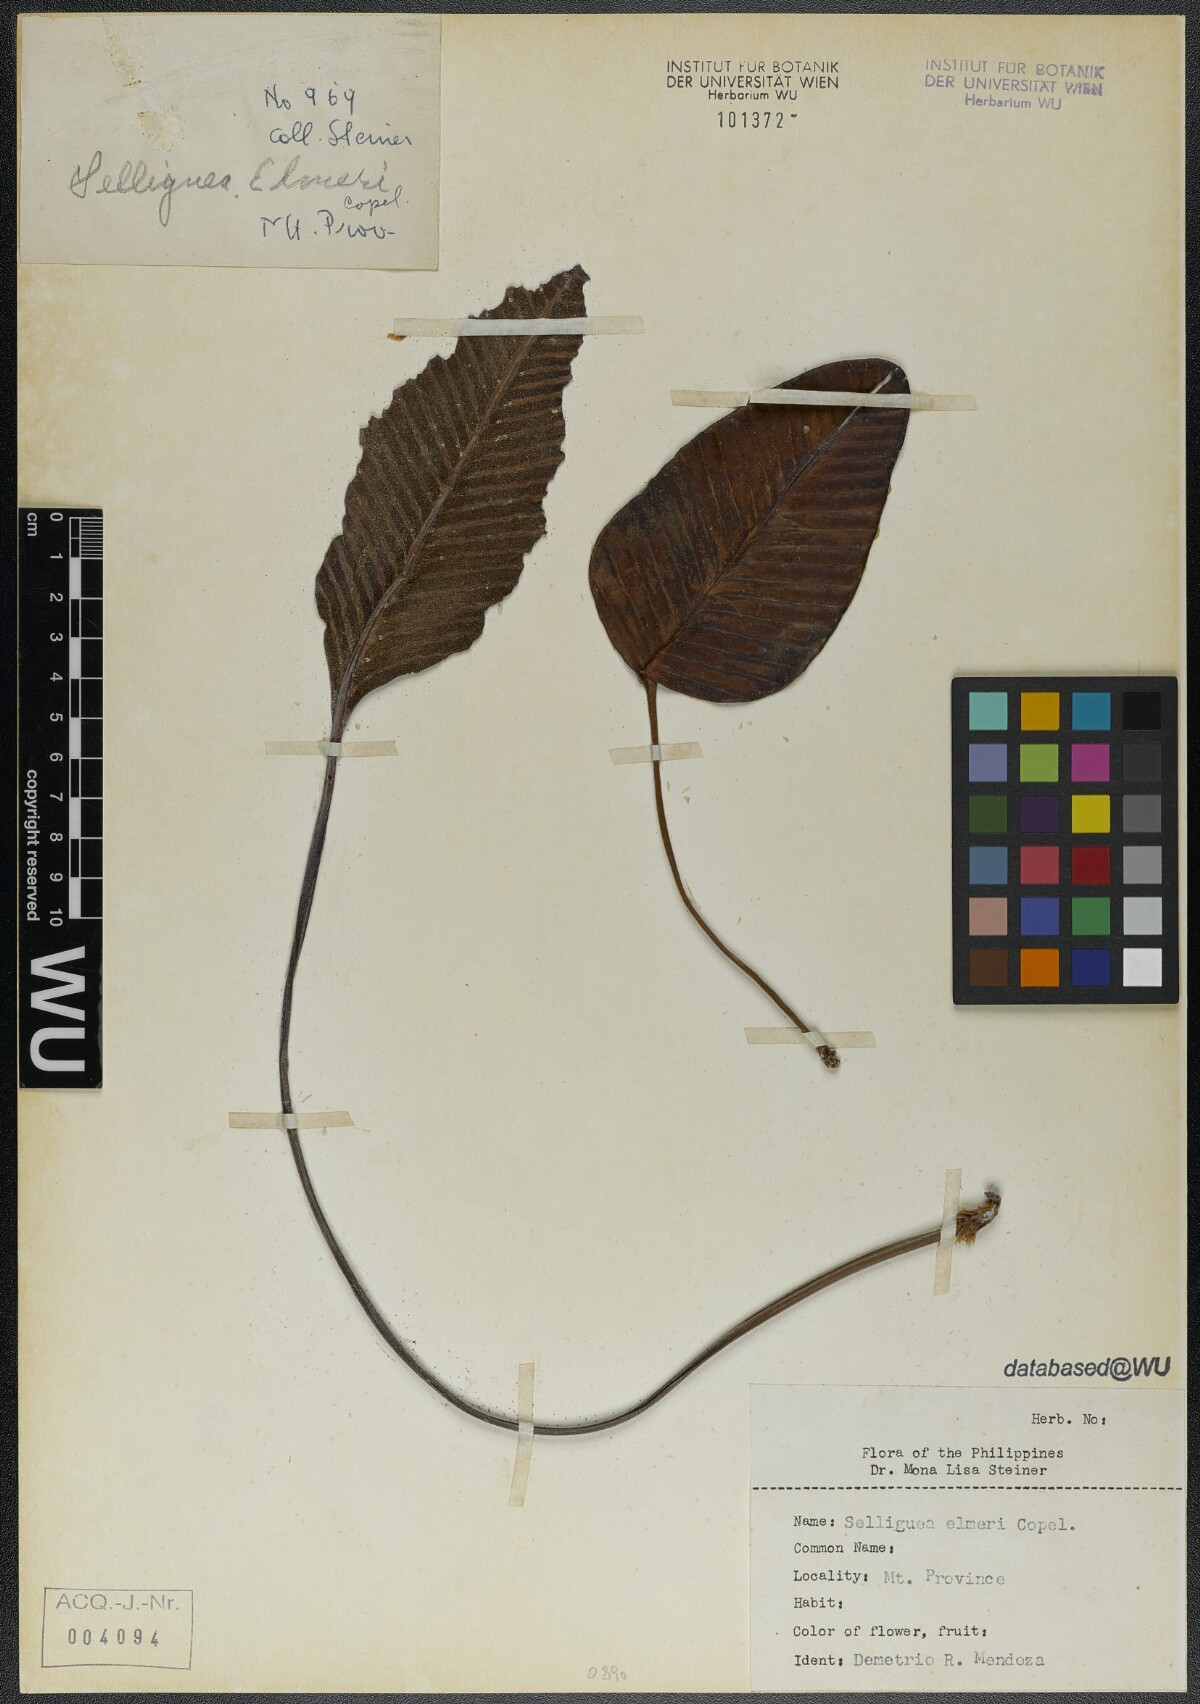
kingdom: Plantae
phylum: Tracheophyta
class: Polypodiopsida
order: Polypodiales
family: Polypodiaceae
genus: Selliguea
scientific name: Selliguea elmeri
